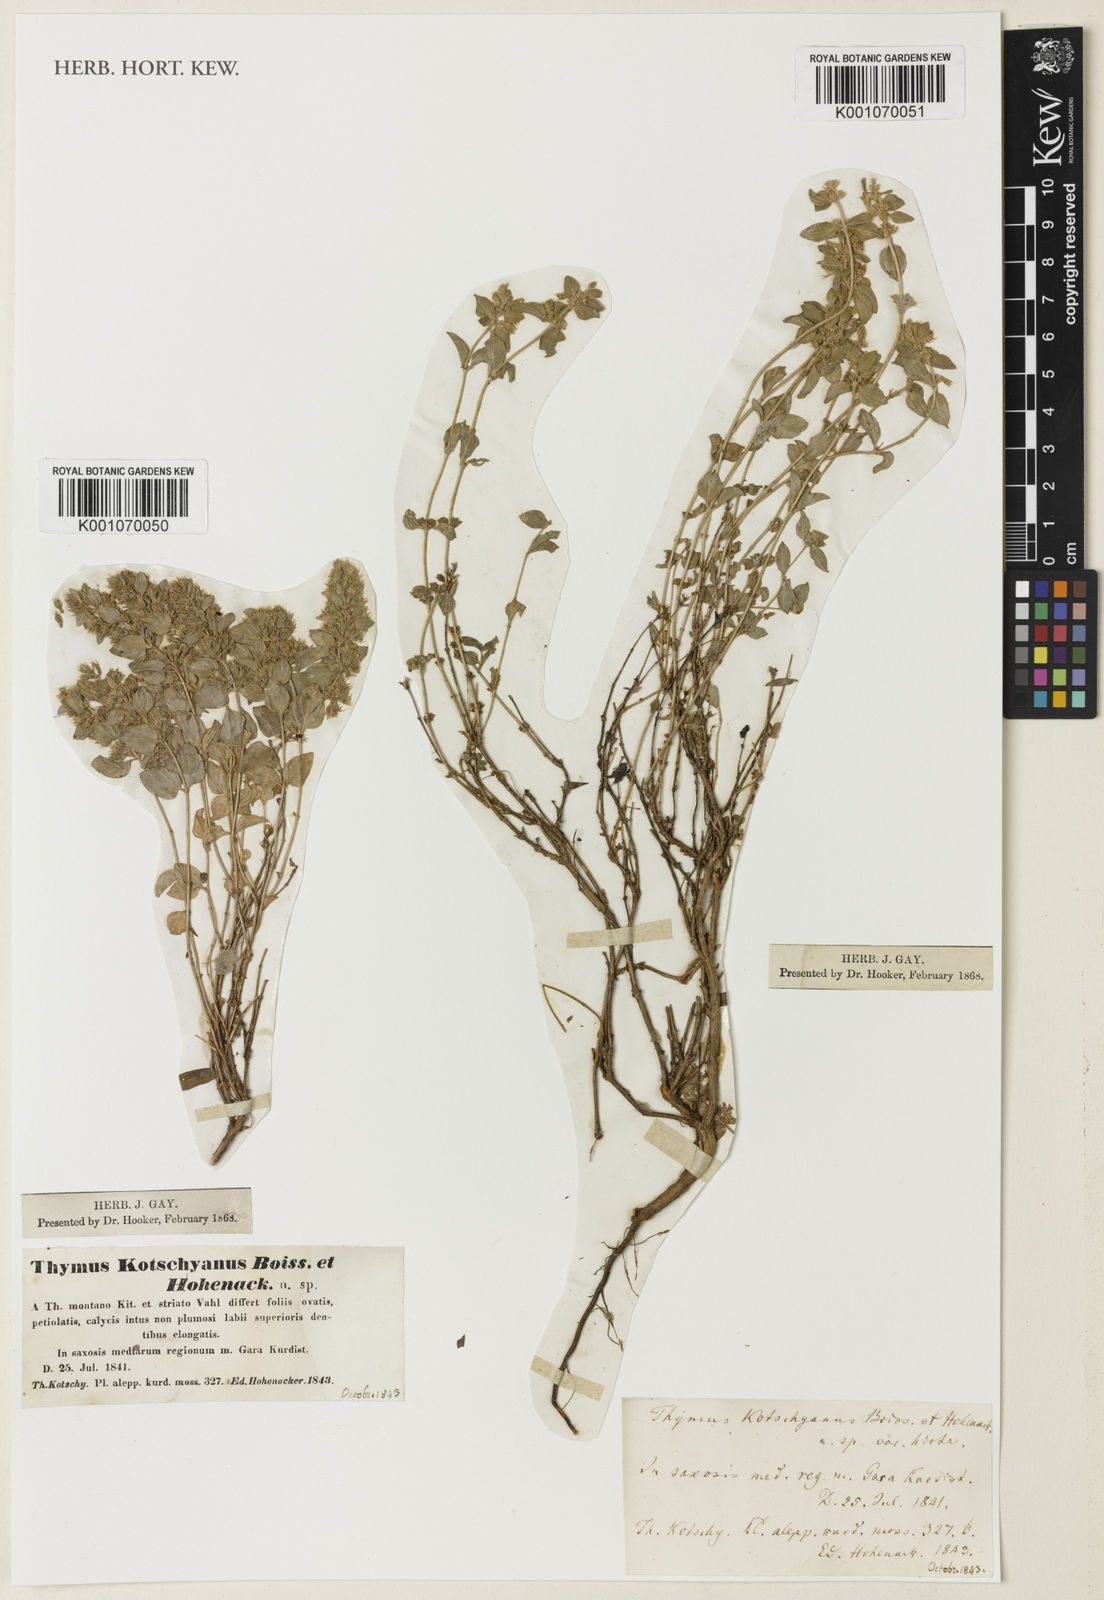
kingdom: Plantae
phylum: Tracheophyta
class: Magnoliopsida
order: Lamiales
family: Lamiaceae
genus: Thymus
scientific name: Thymus serpyllum
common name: Breckland thyme
